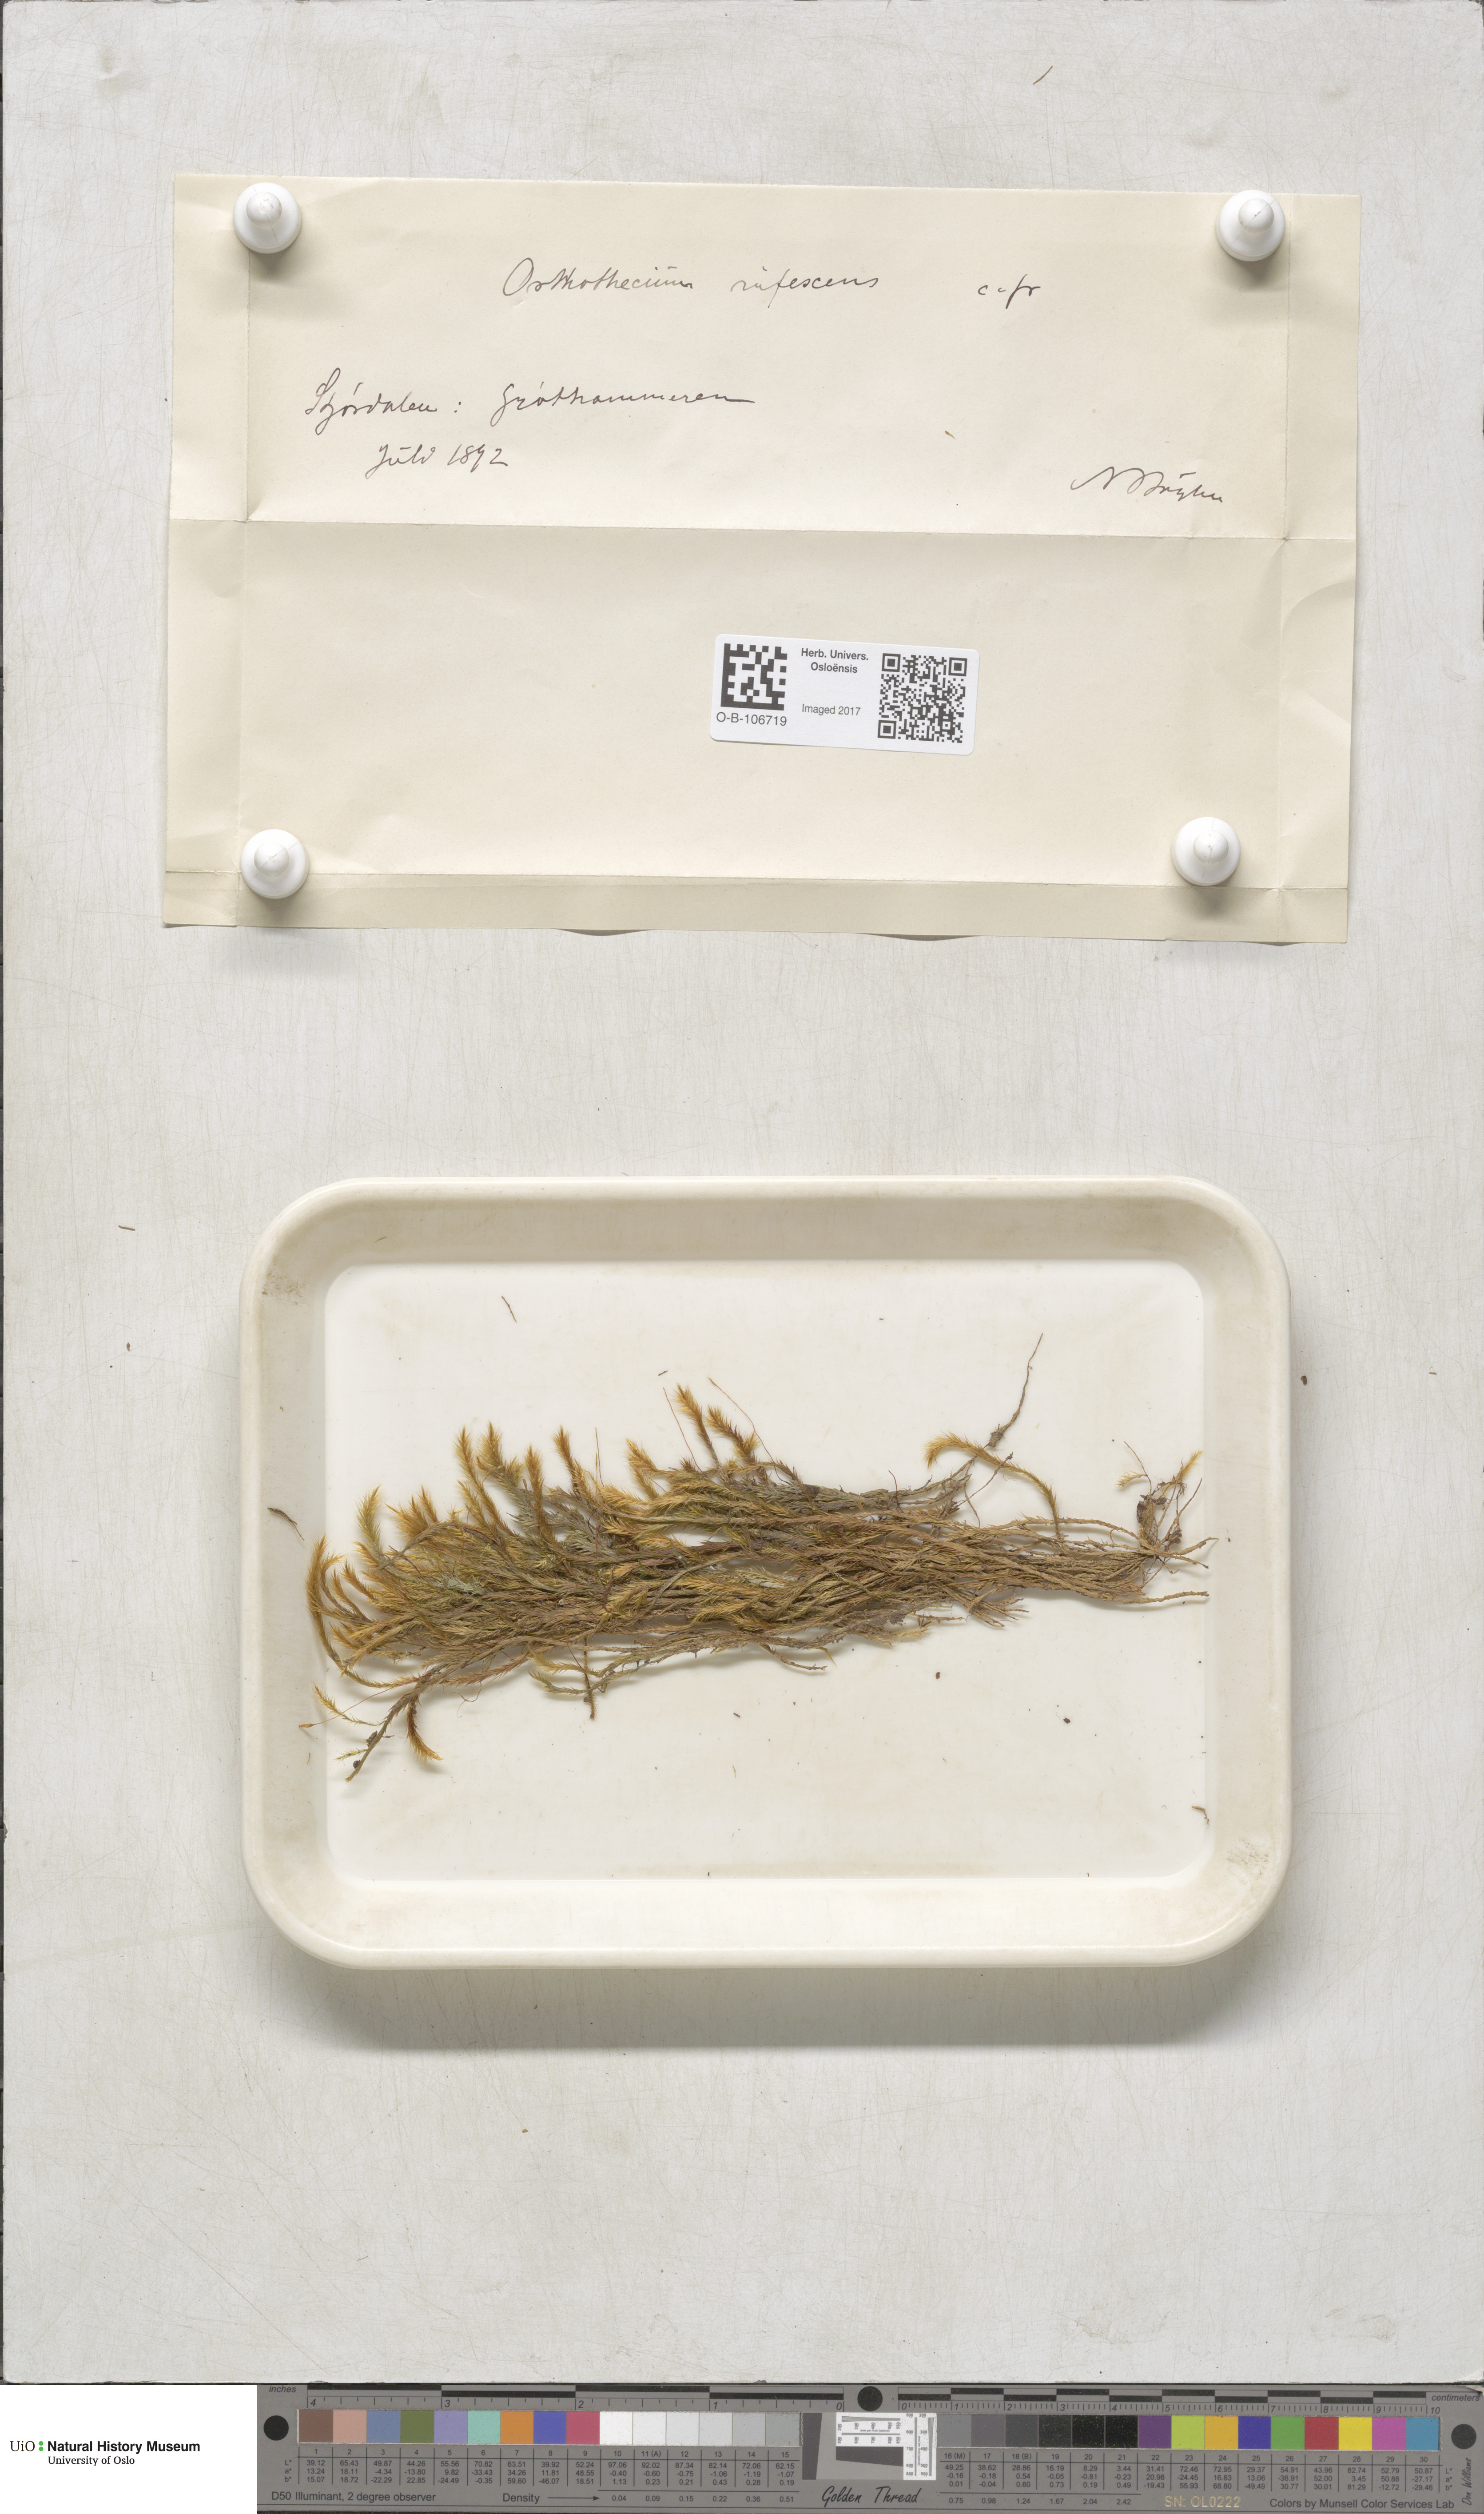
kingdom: Plantae
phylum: Bryophyta
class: Bryopsida
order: Hypnales
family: Plagiotheciaceae
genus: Orthothecium
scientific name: Orthothecium rufescens
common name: Red leskea
